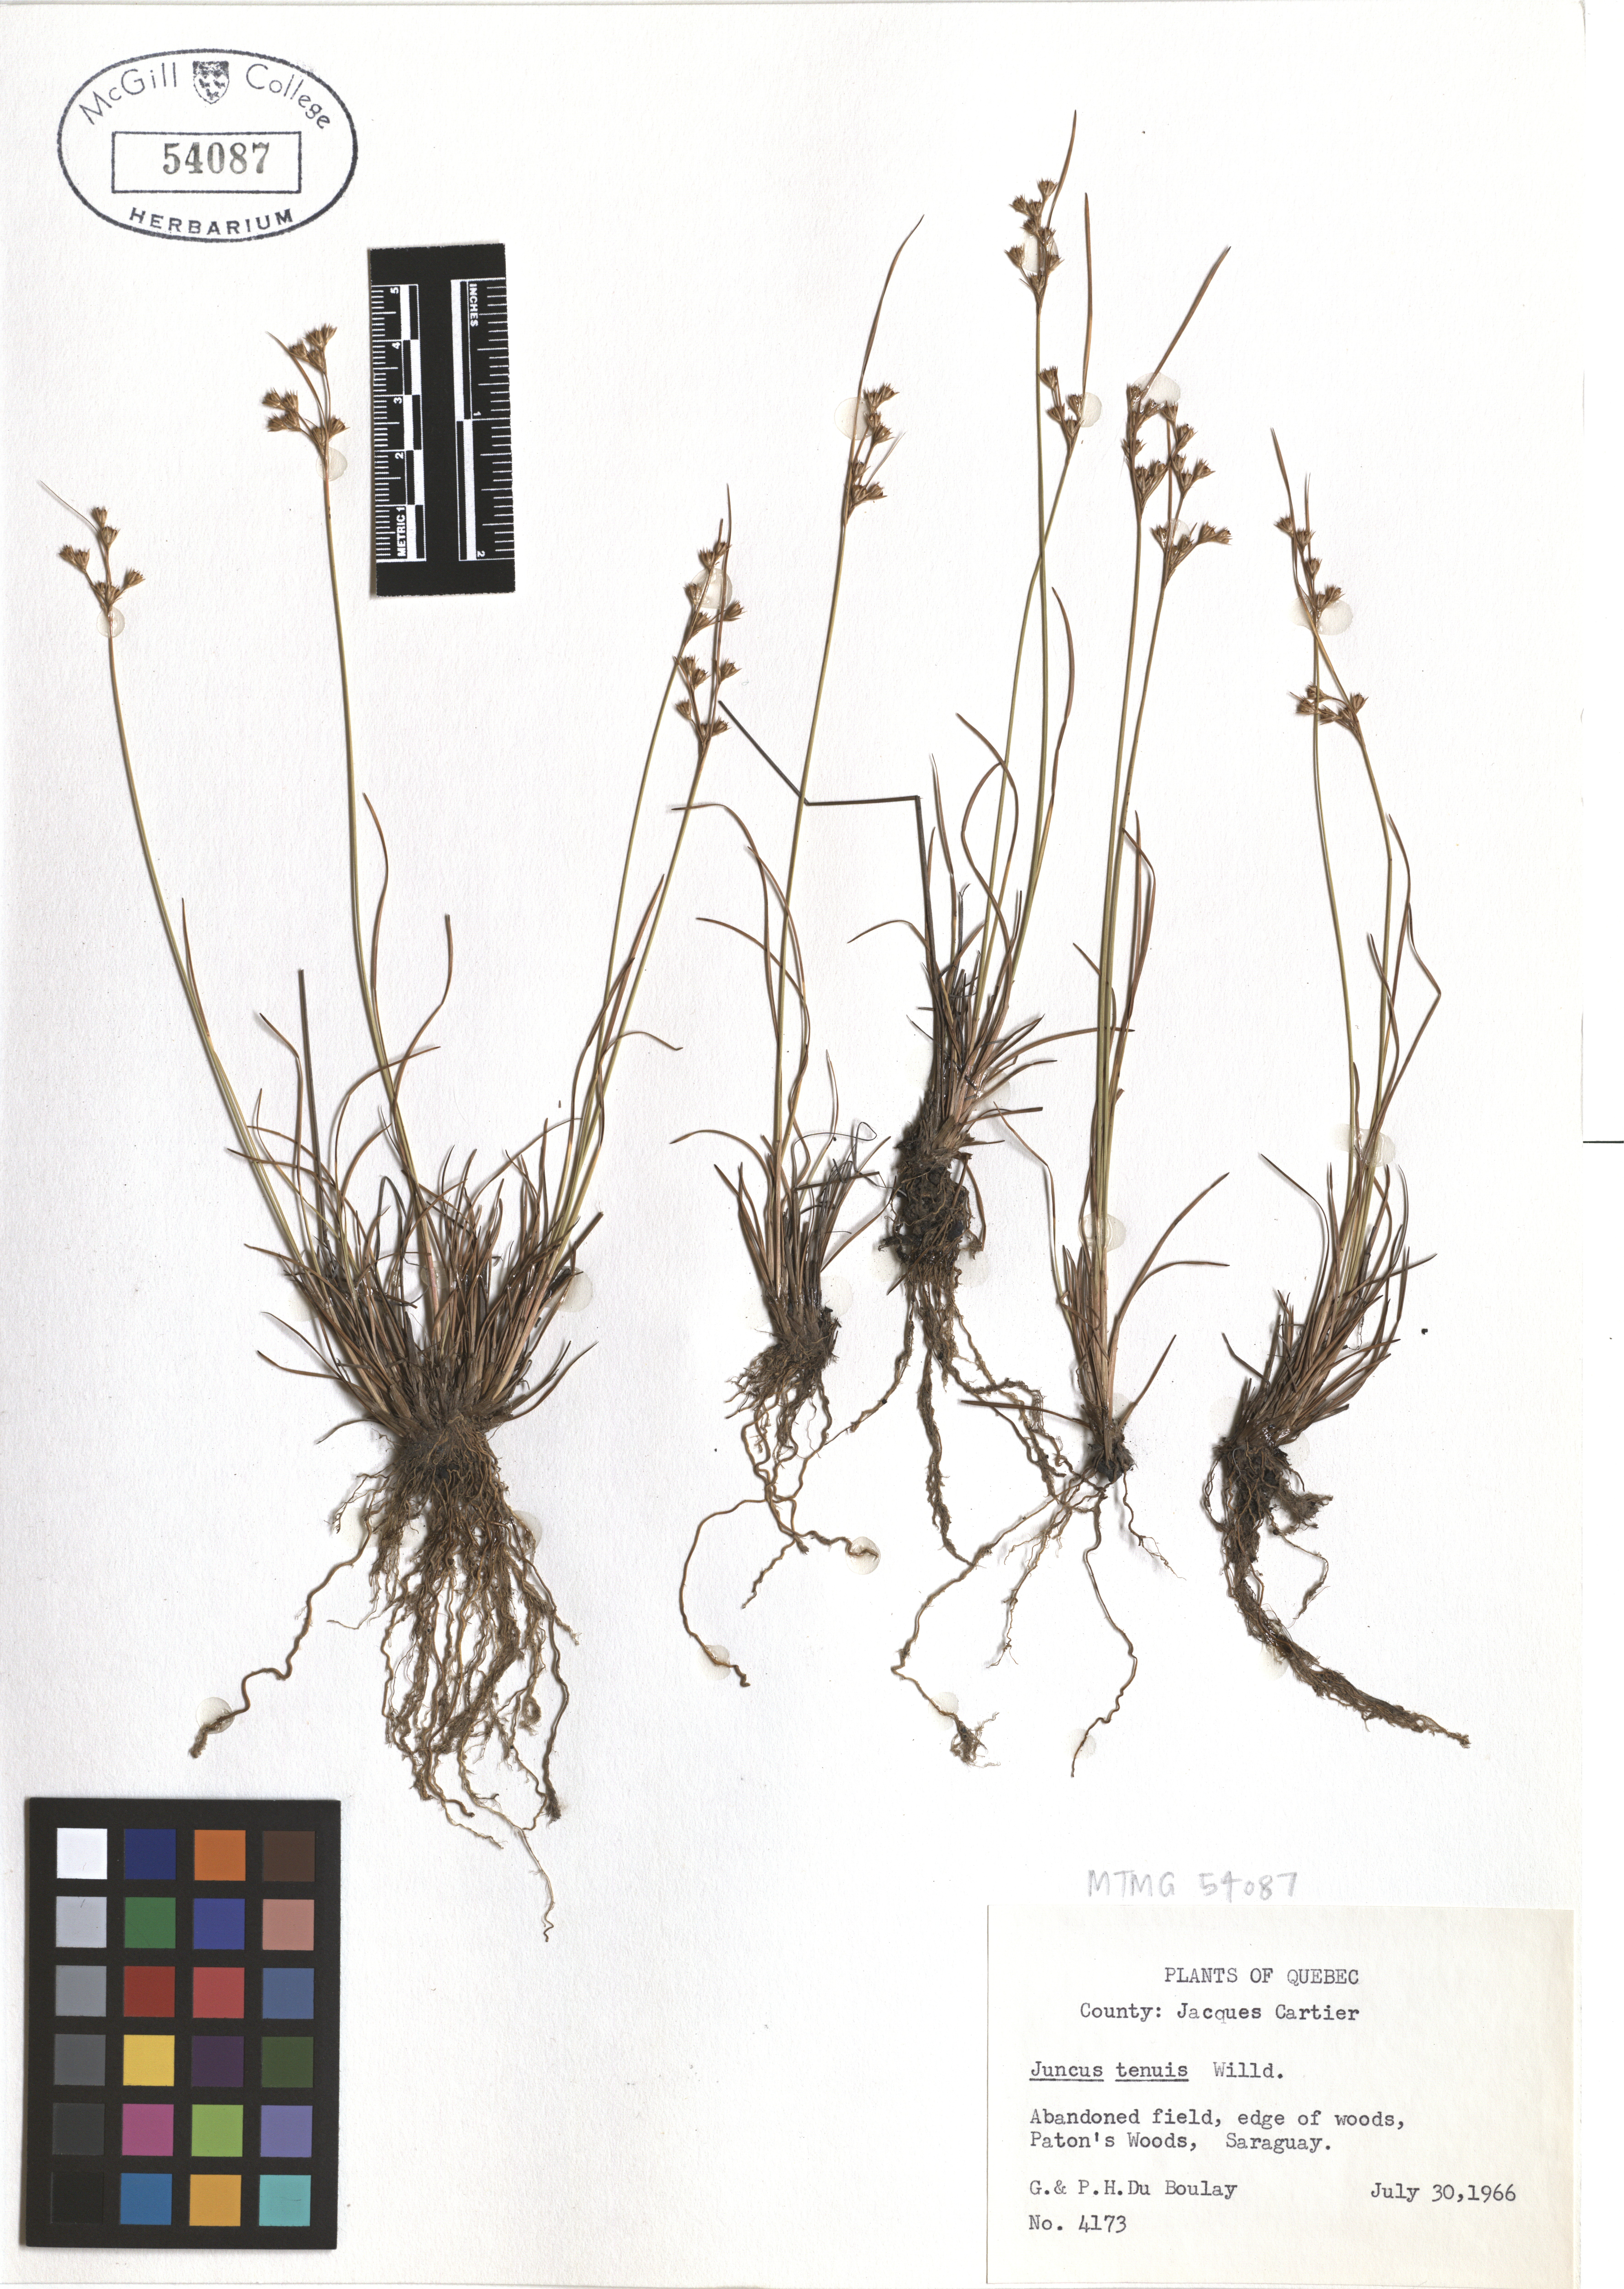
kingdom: Plantae
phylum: Tracheophyta
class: Liliopsida
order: Poales
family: Juncaceae
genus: Juncus
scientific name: Juncus tenuis
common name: Slender rush
